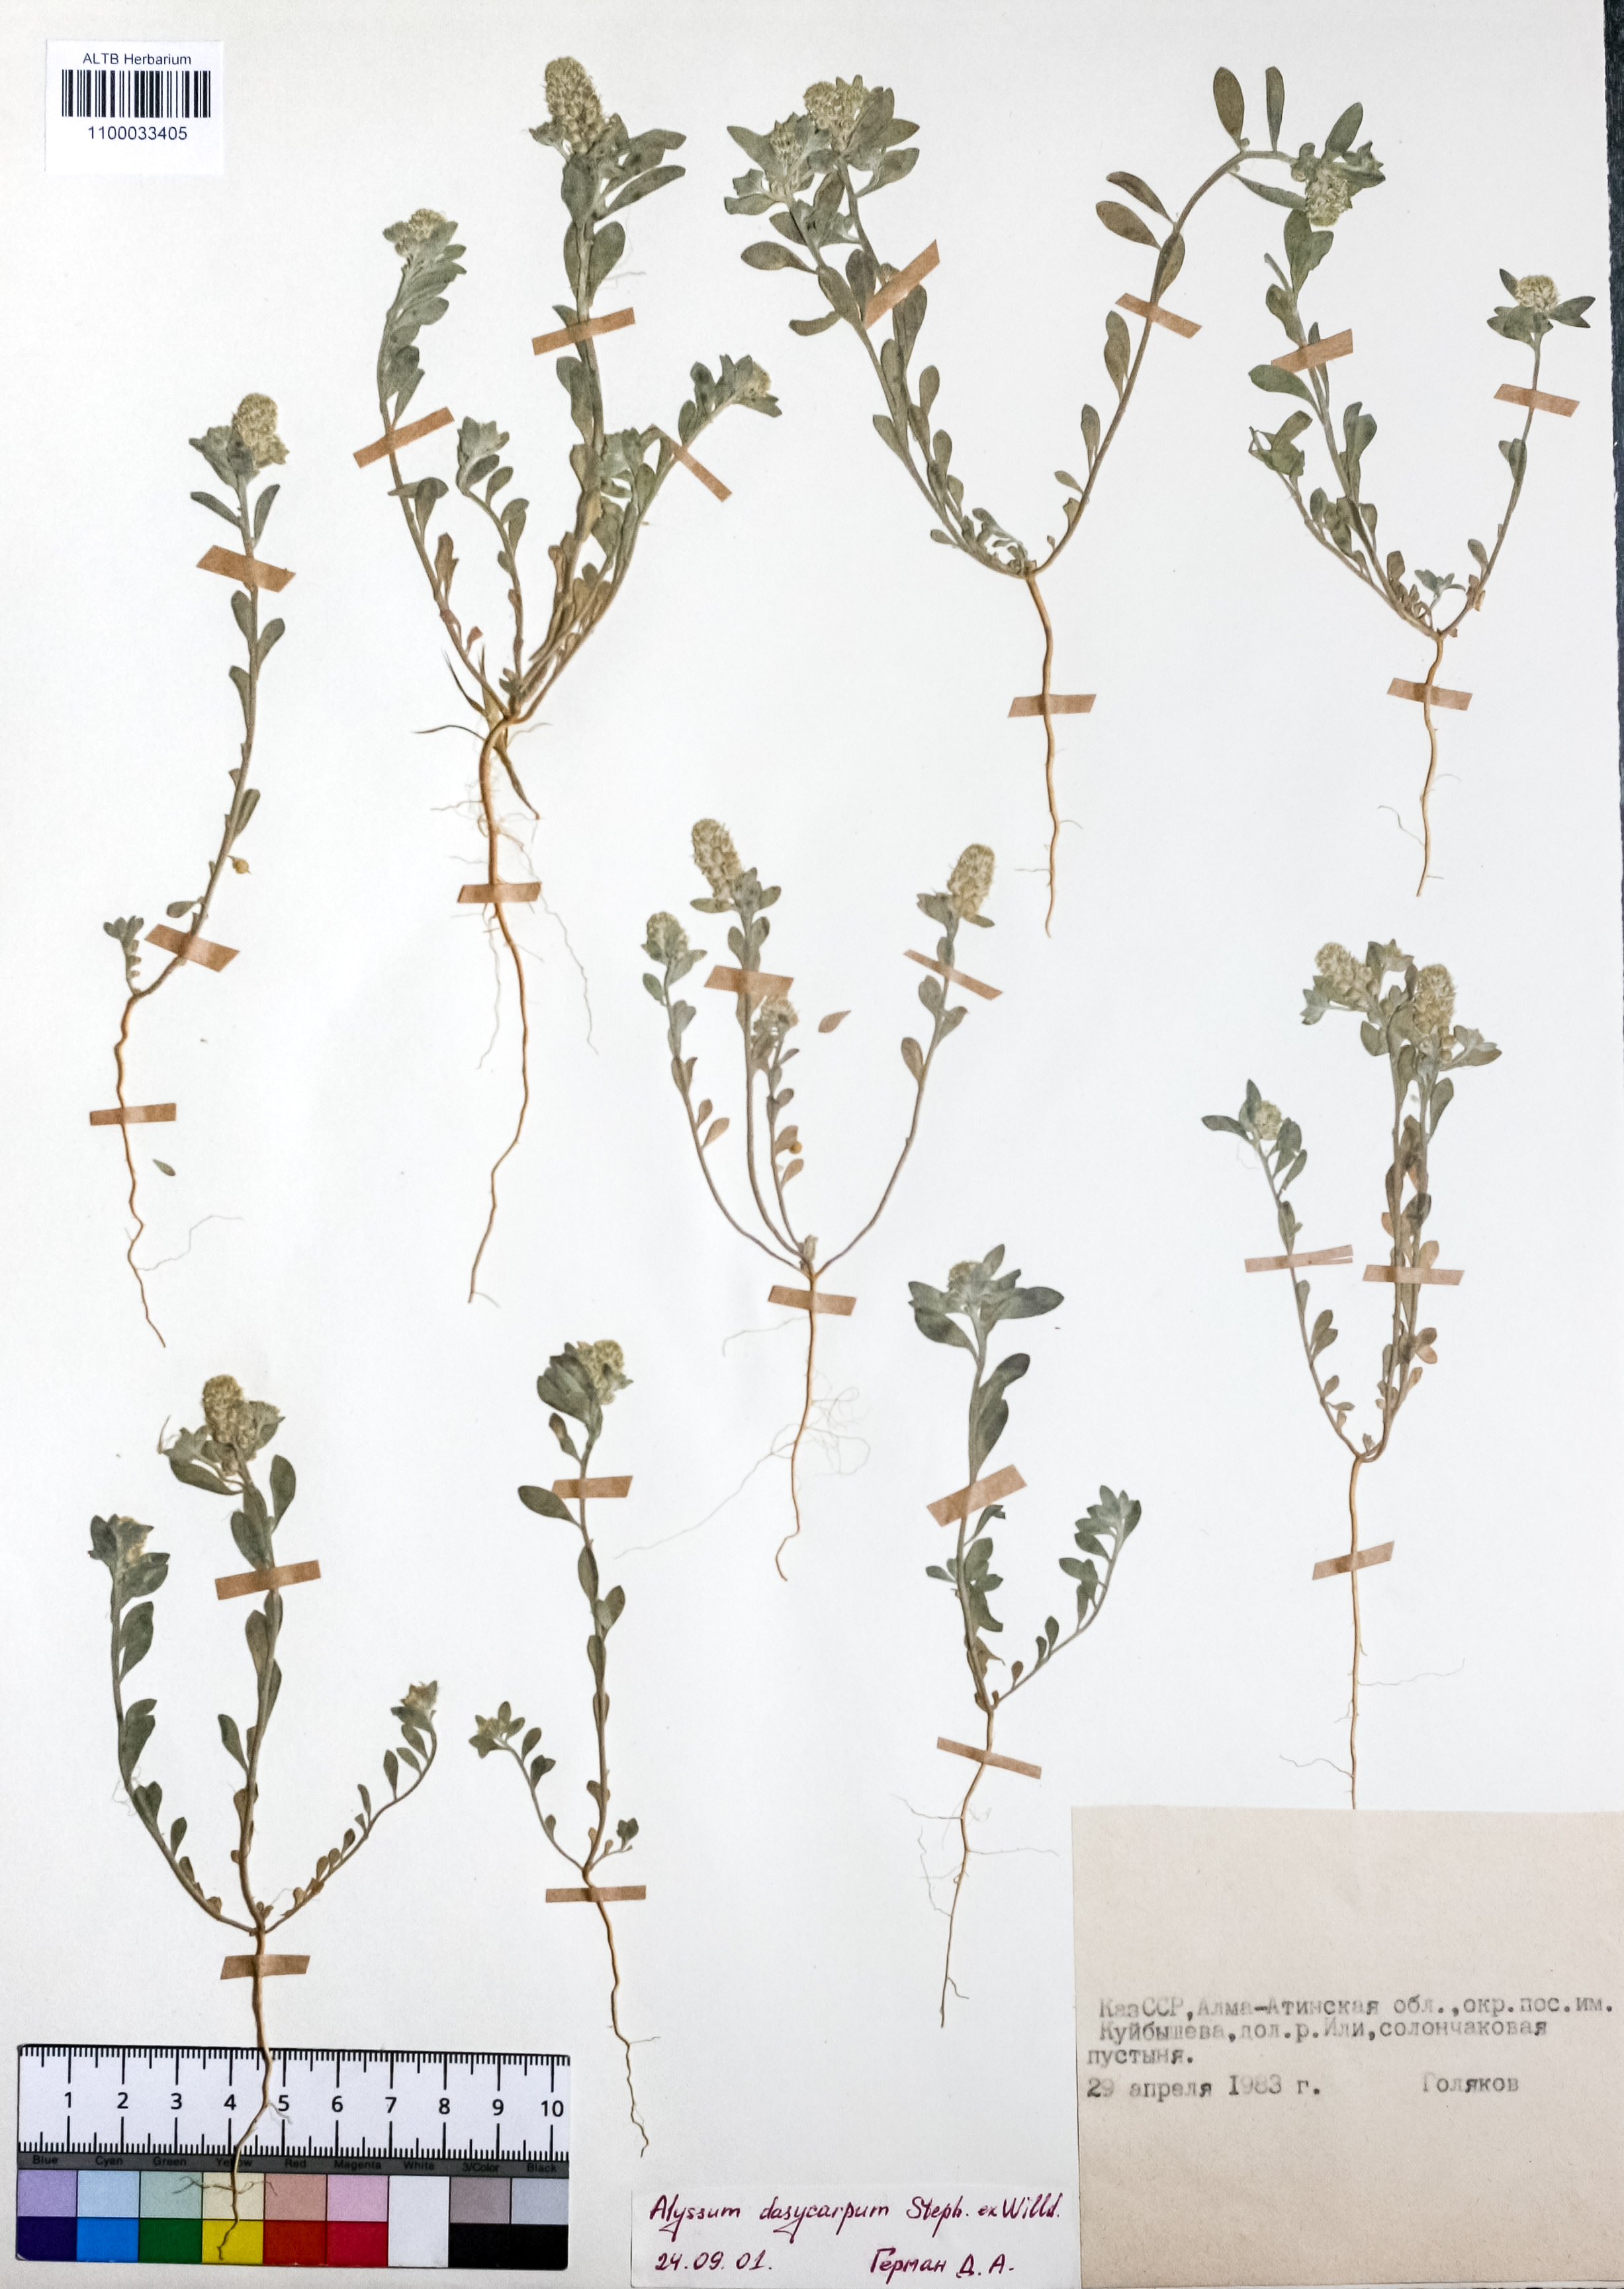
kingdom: Plantae
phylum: Tracheophyta
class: Magnoliopsida
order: Brassicales
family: Brassicaceae
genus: Alyssum
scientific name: Alyssum dasycarpum
